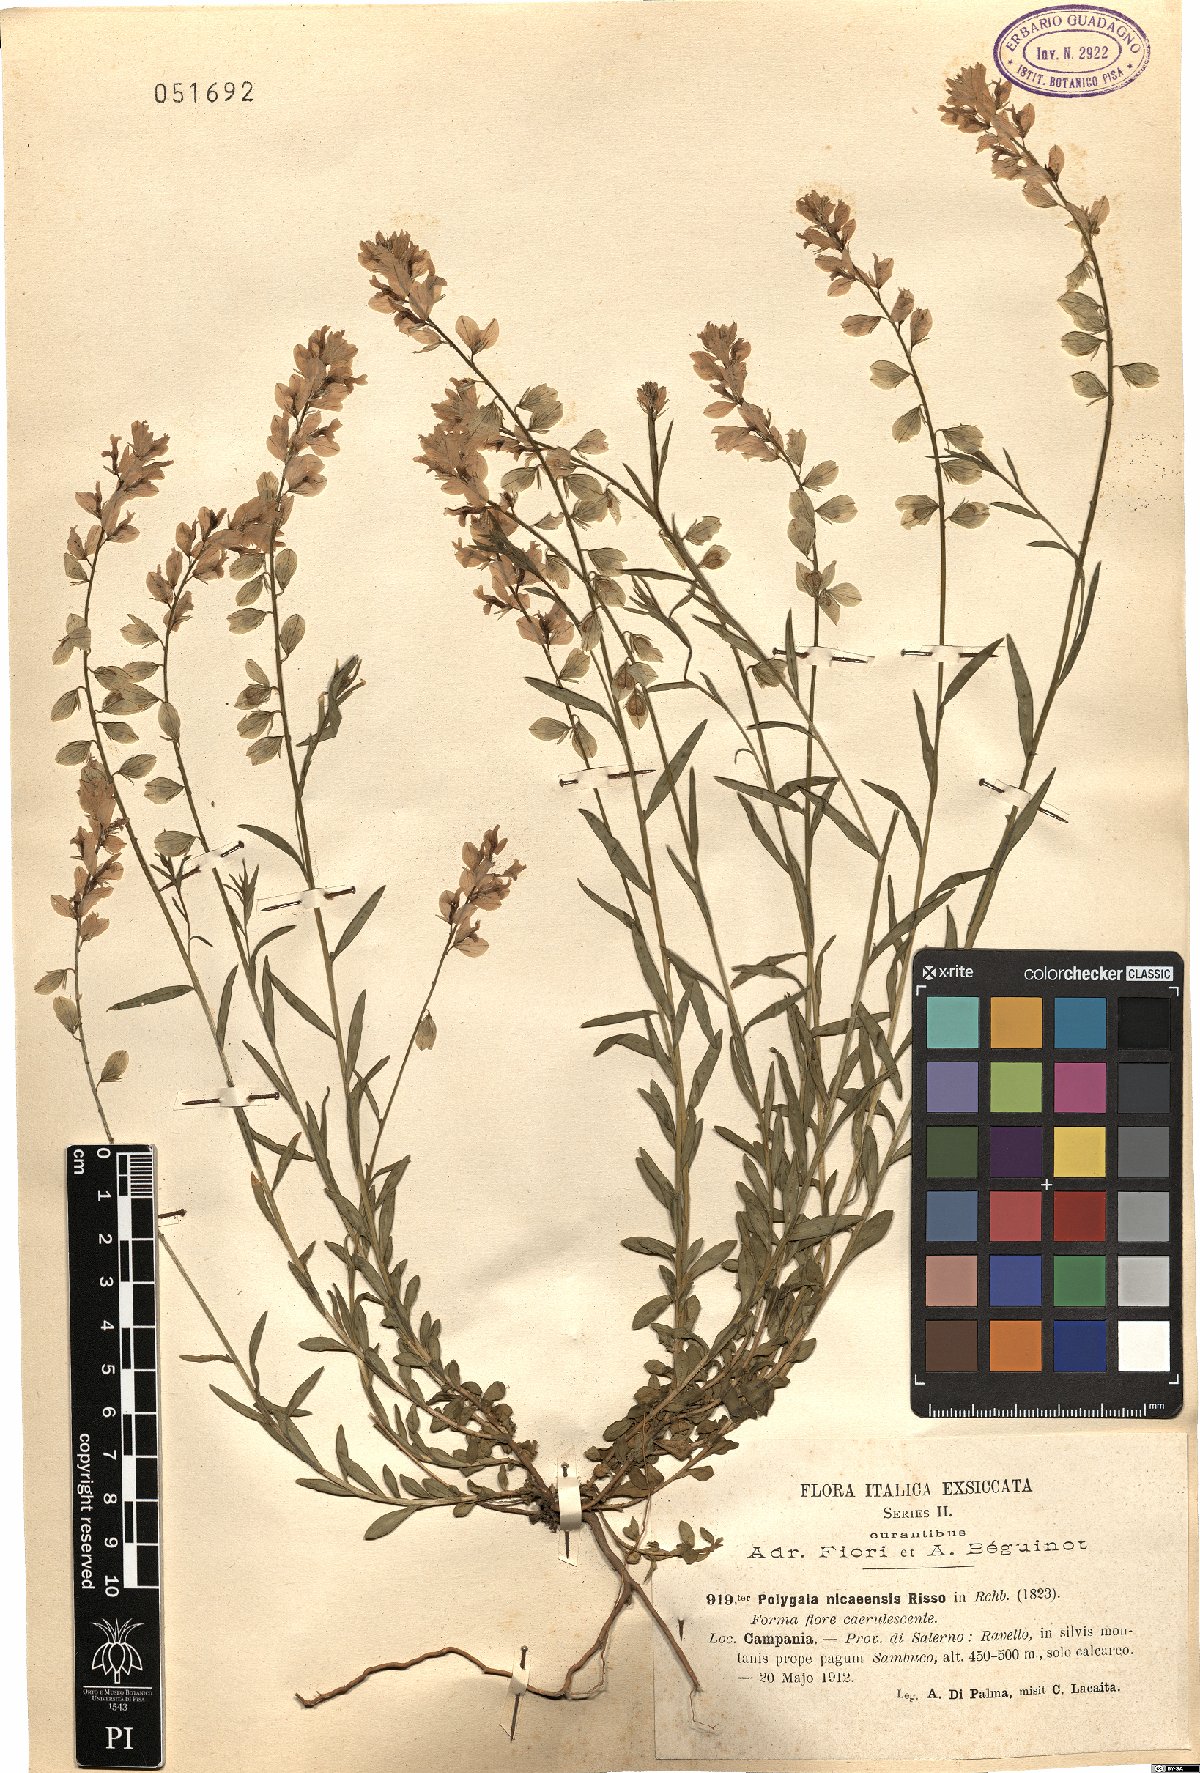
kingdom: Plantae
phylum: Tracheophyta
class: Magnoliopsida
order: Fabales
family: Polygalaceae
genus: Polygala
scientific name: Polygala nicaeensis
